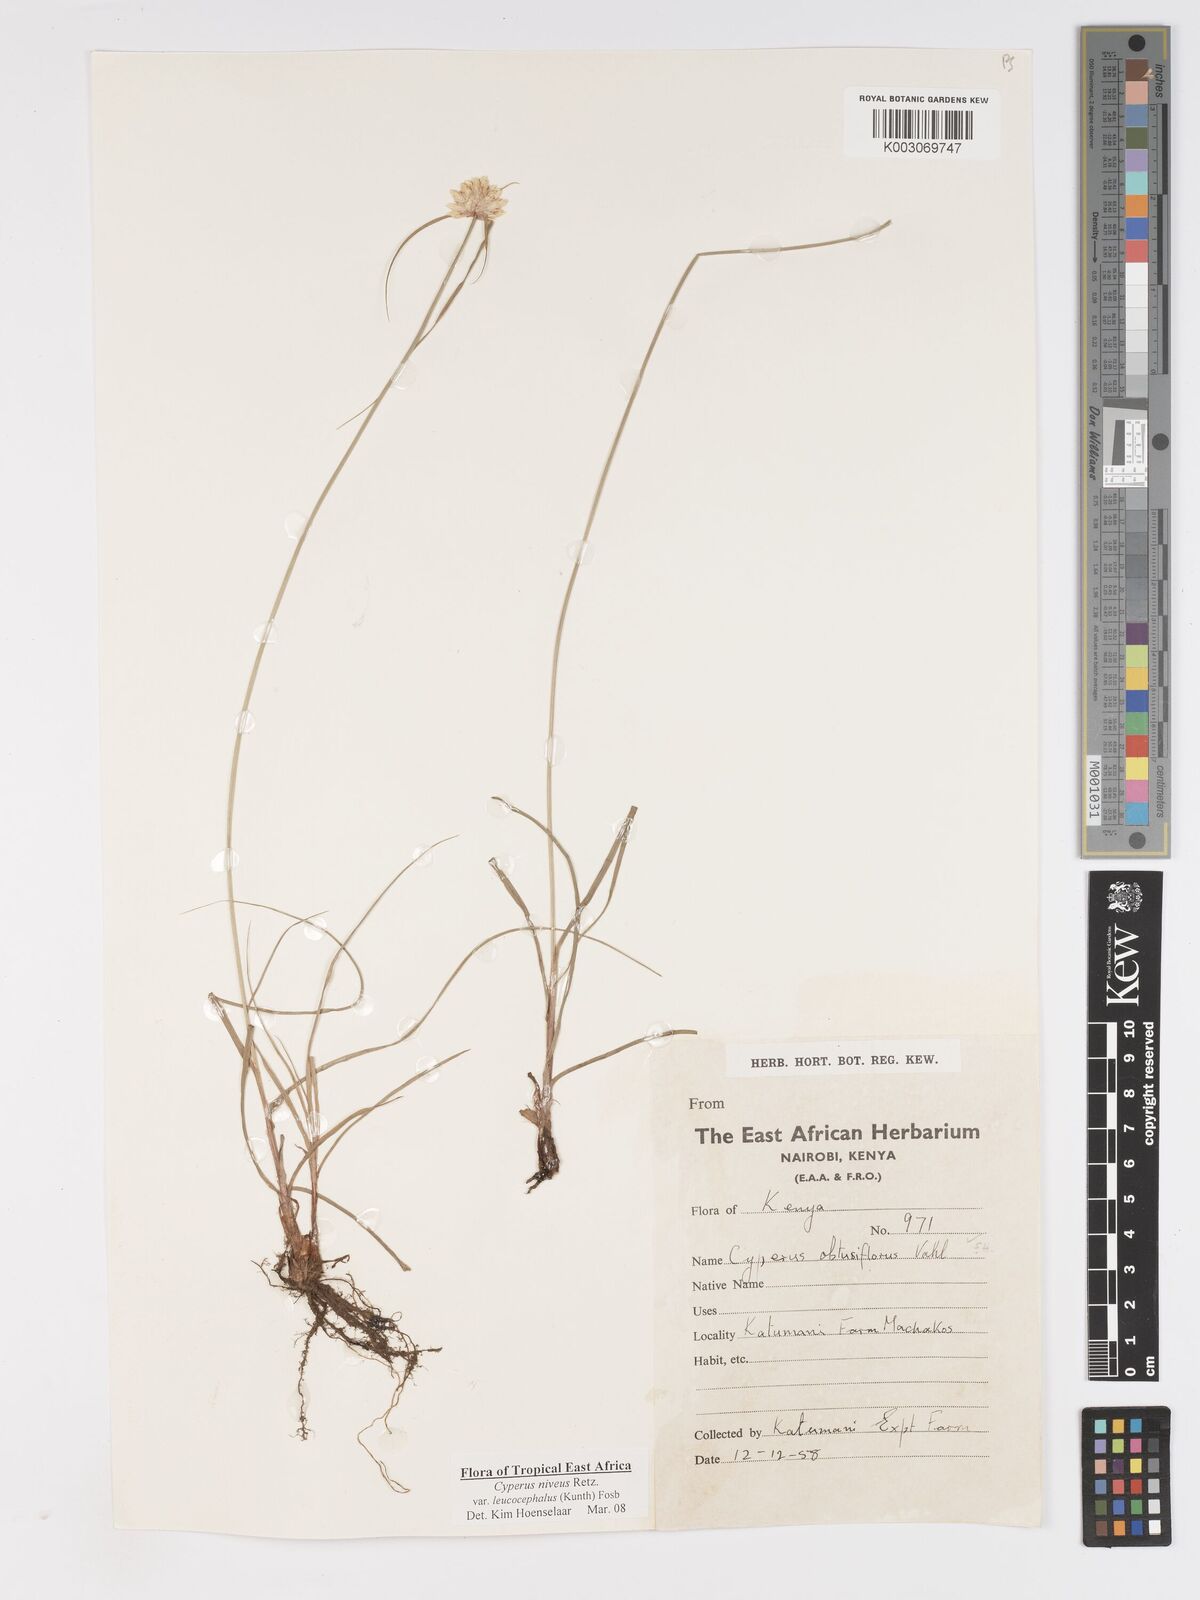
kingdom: Plantae
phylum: Tracheophyta
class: Liliopsida
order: Poales
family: Cyperaceae
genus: Cyperus
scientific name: Cyperus niveus
